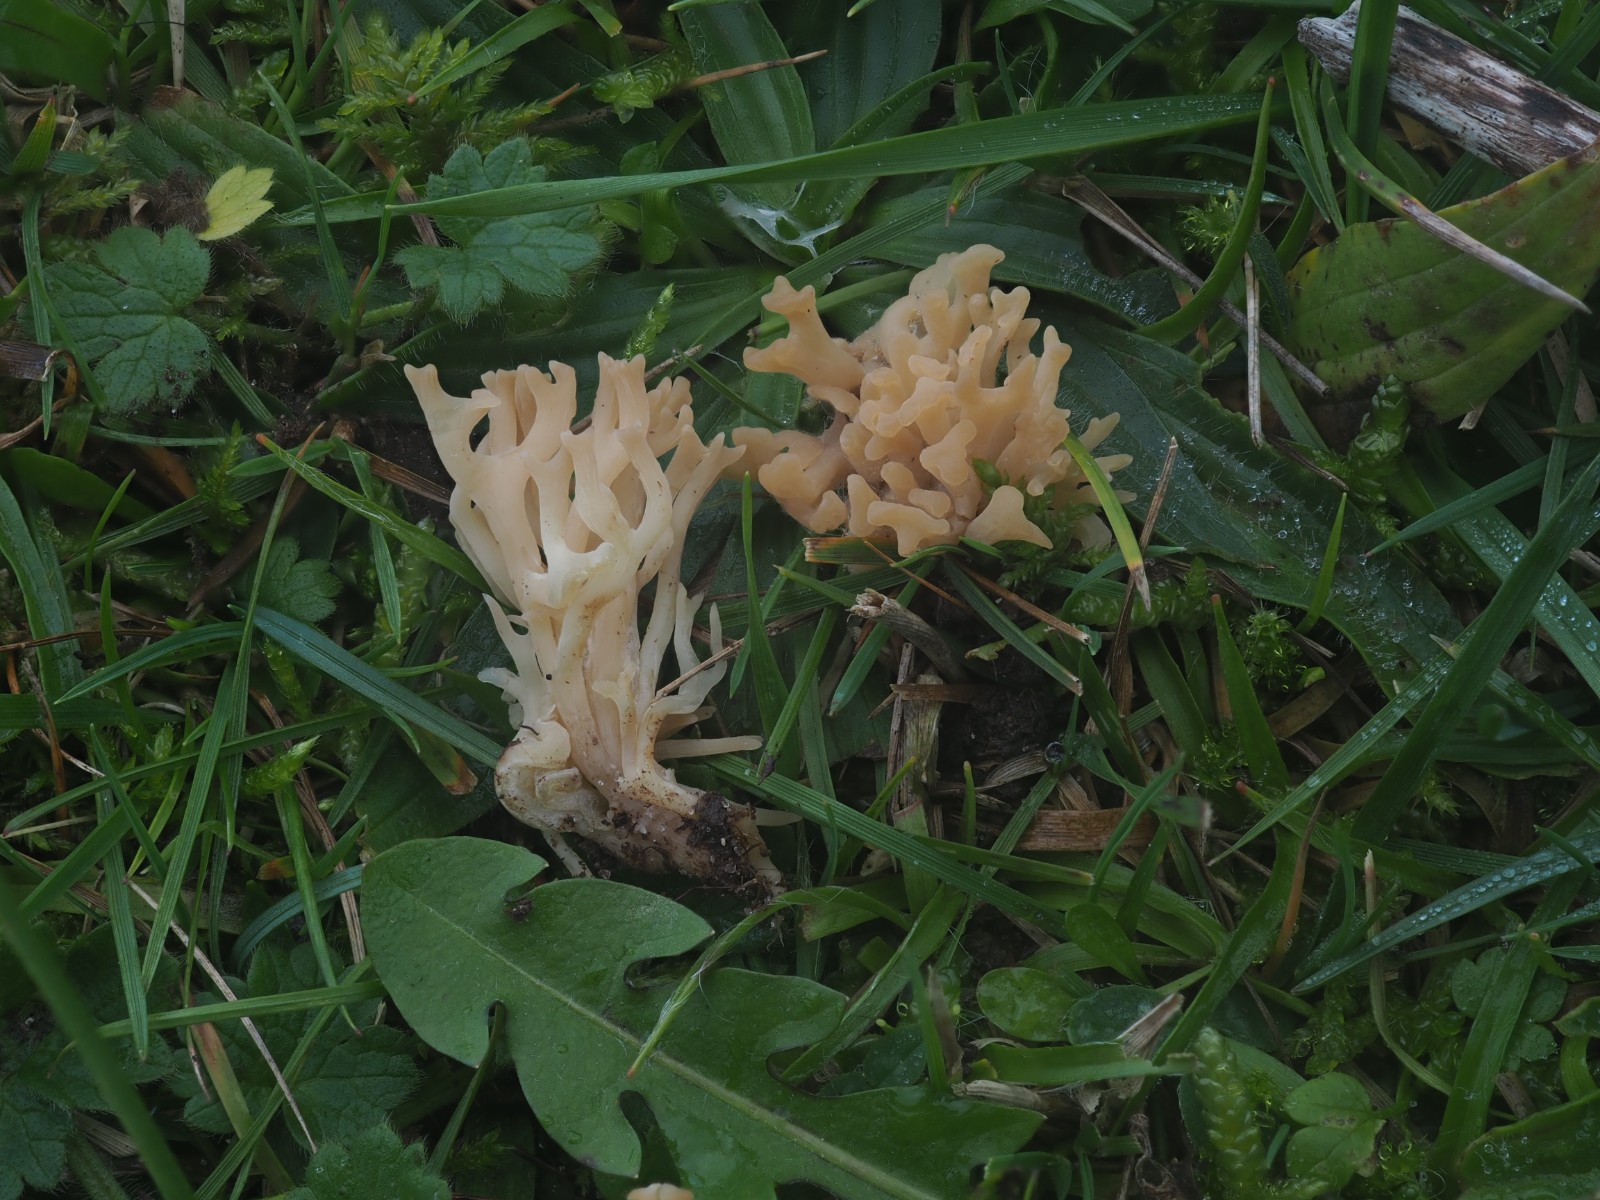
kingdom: Fungi
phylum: Basidiomycota
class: Agaricomycetes
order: Agaricales
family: Clavariaceae
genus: Clavulinopsis
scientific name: Clavulinopsis umbrinella
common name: gulgrå køllesvamp
